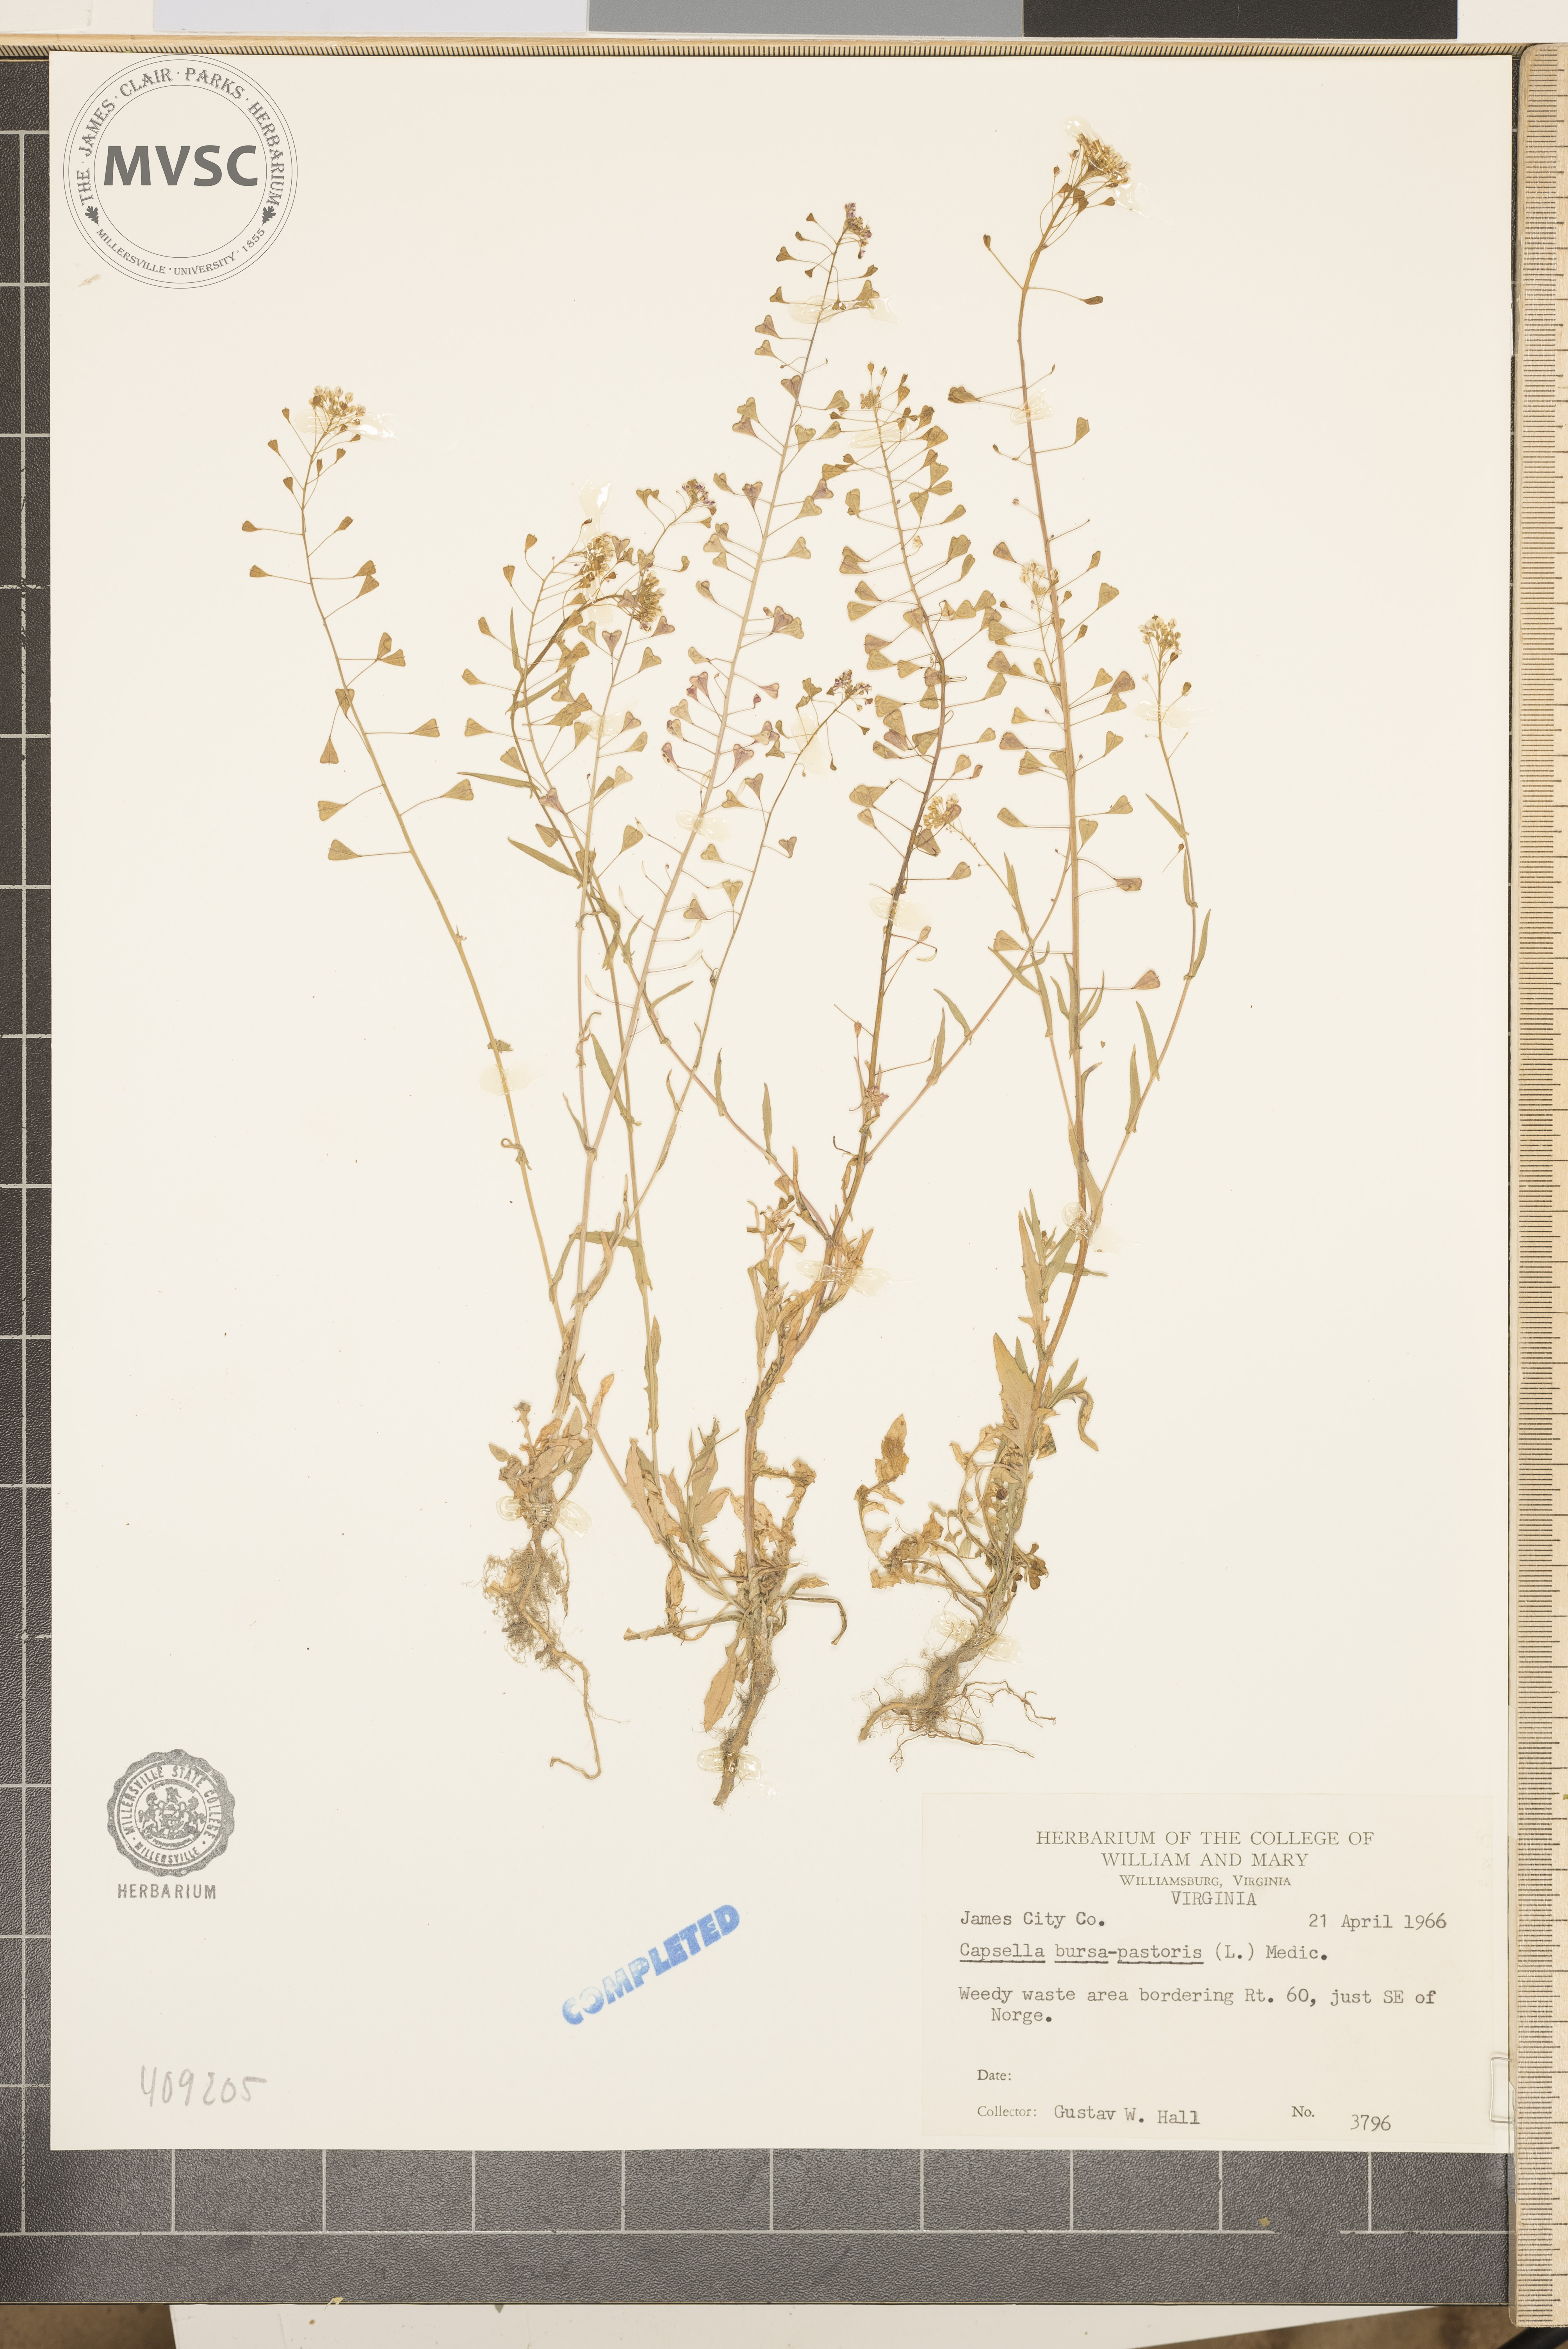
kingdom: Plantae
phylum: Tracheophyta
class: Magnoliopsida
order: Brassicales
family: Brassicaceae
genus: Capsella
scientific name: Capsella bursa-pastoris
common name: Shepherd's purse
